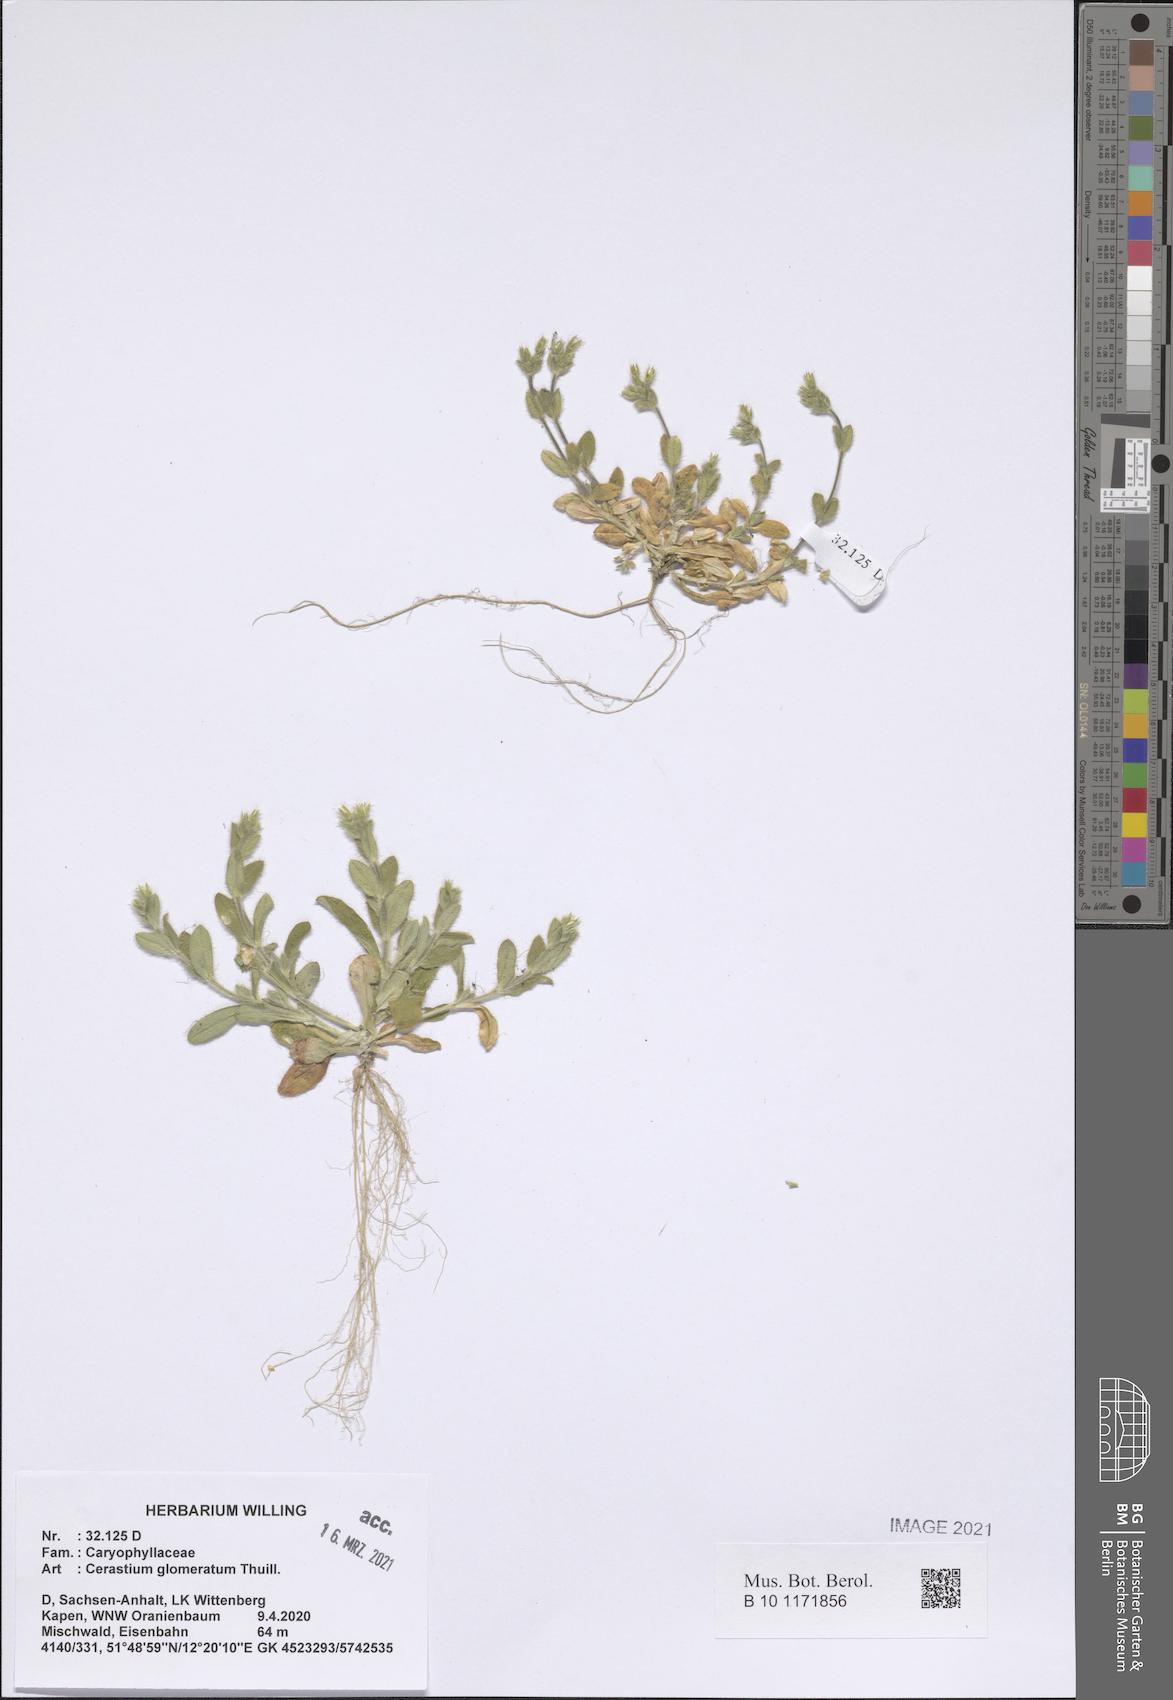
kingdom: Plantae
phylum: Tracheophyta
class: Magnoliopsida
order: Caryophyllales
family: Caryophyllaceae
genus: Cerastium
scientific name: Cerastium glomeratum
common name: Sticky chickweed
